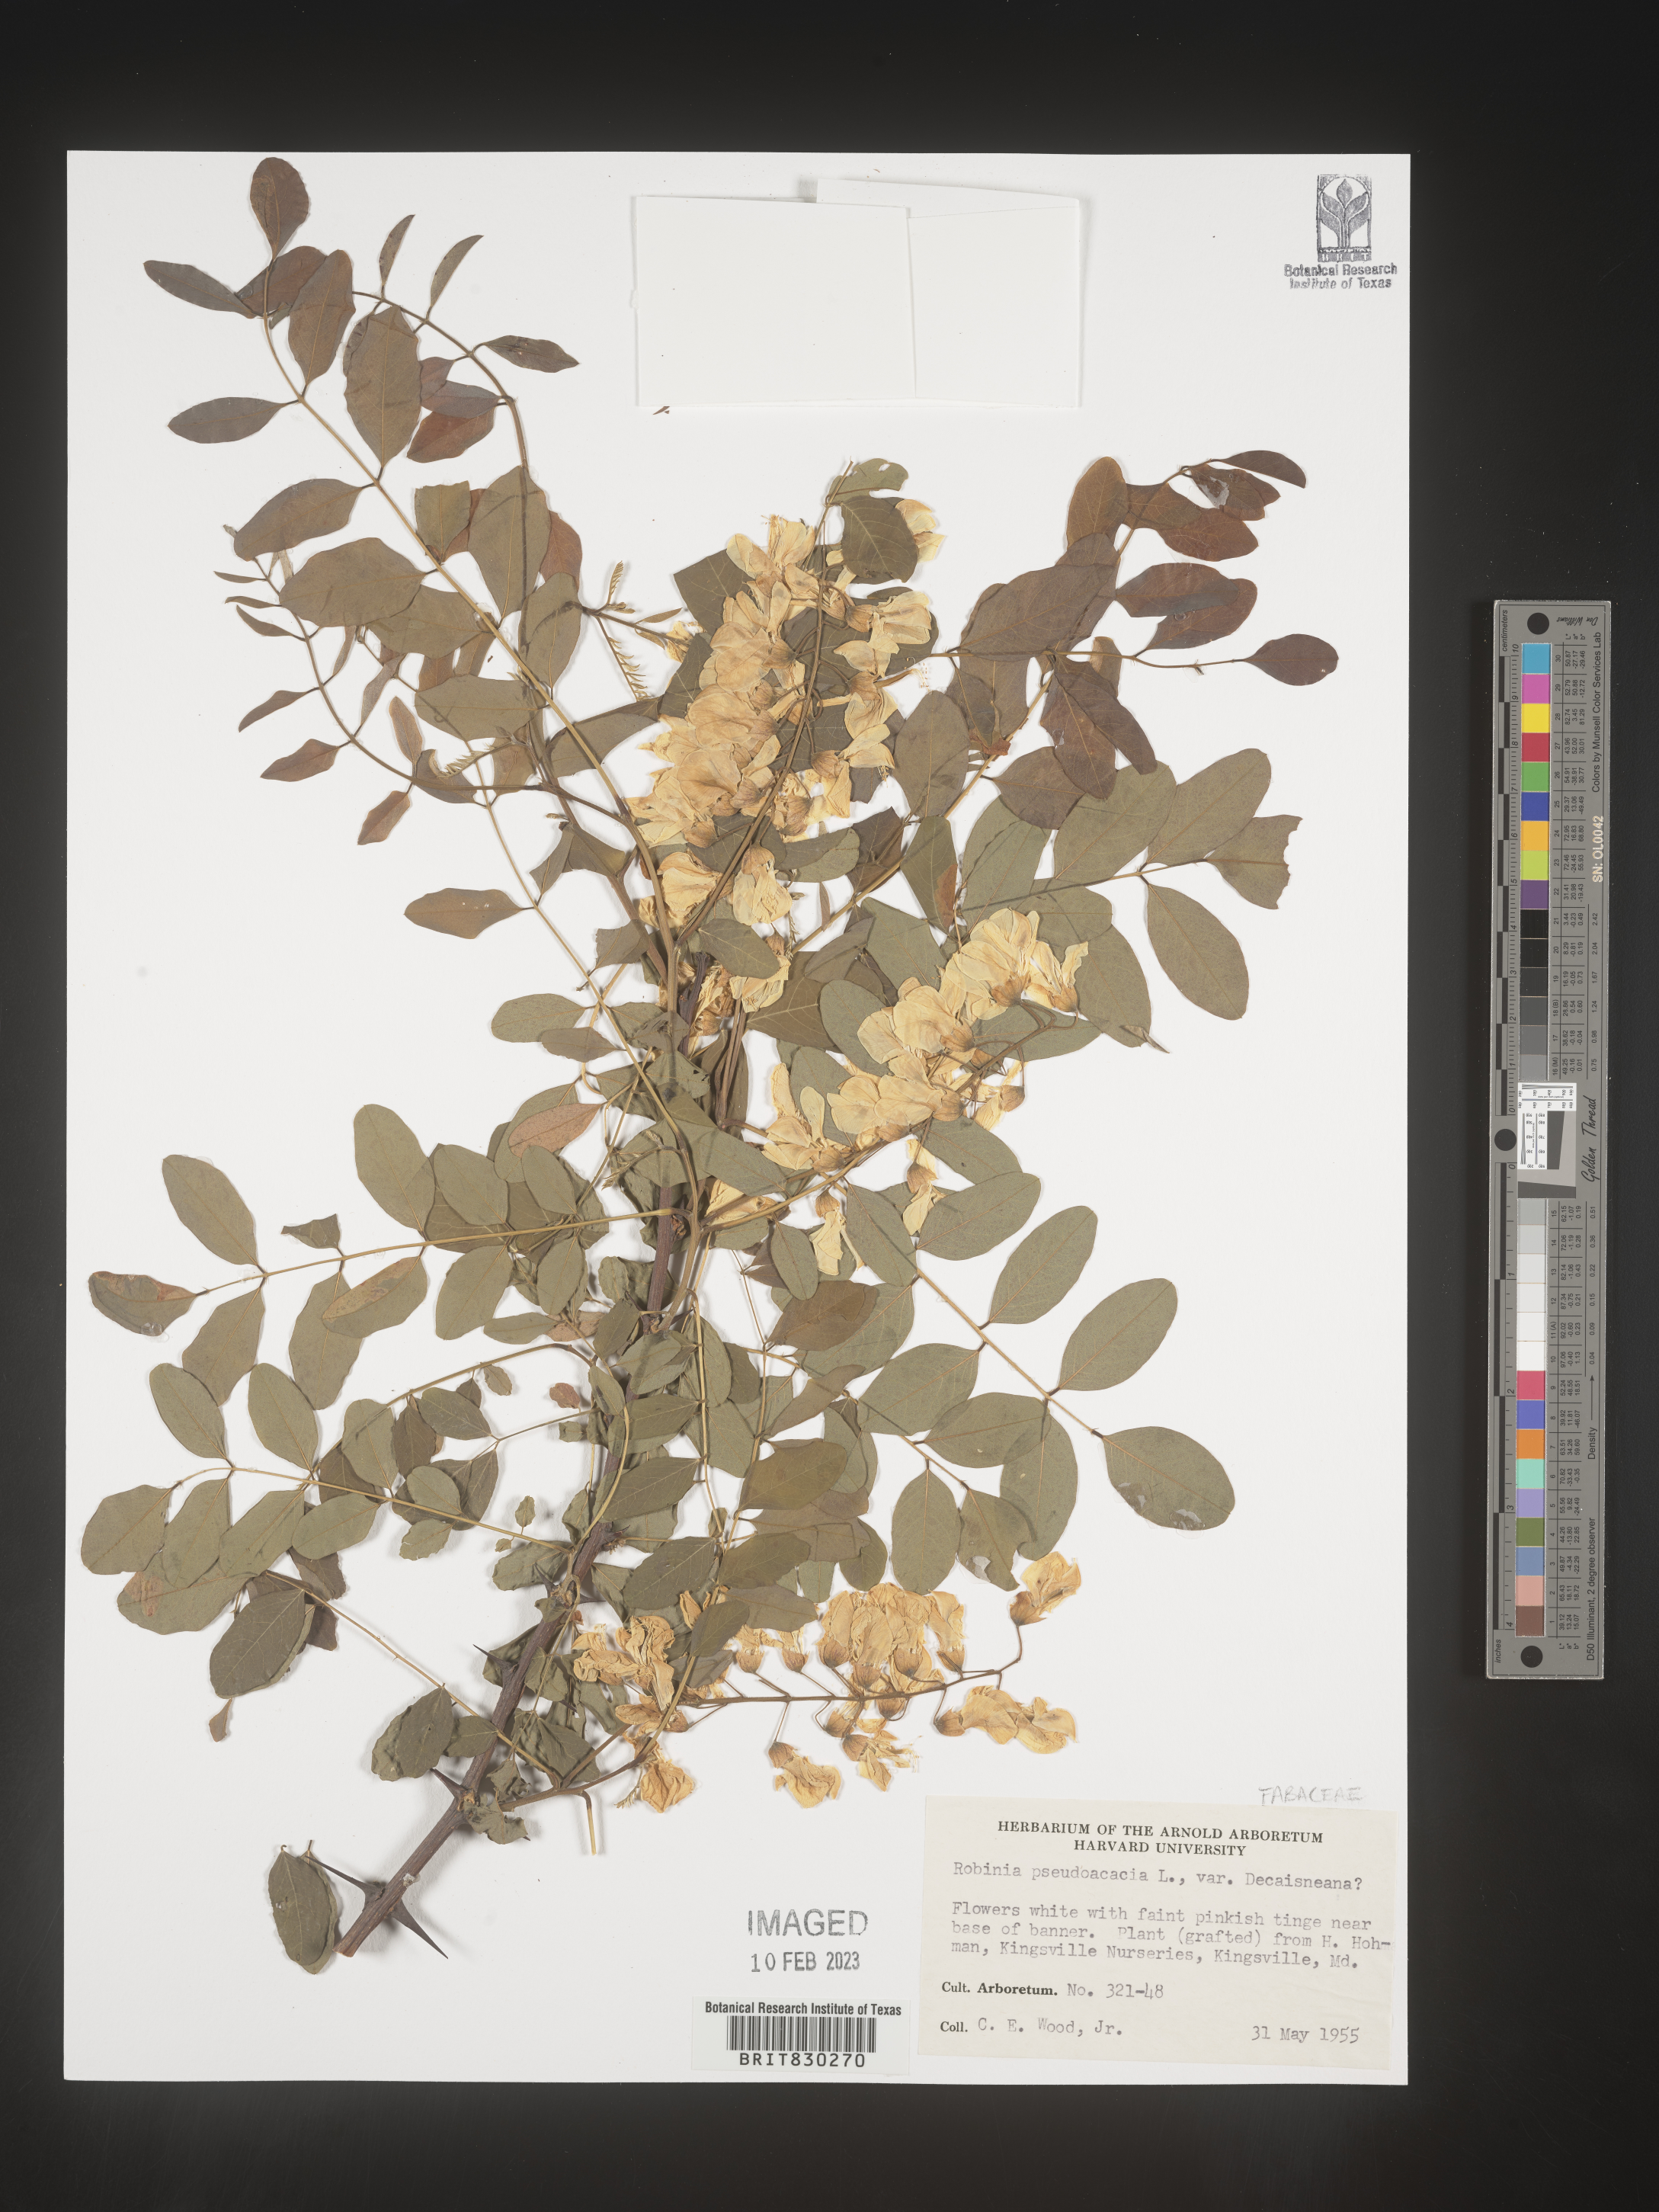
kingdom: Plantae
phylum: Tracheophyta
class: Magnoliopsida
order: Fabales
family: Fabaceae
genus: Robinia
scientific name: Robinia pseudoacacia
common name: Black locust
